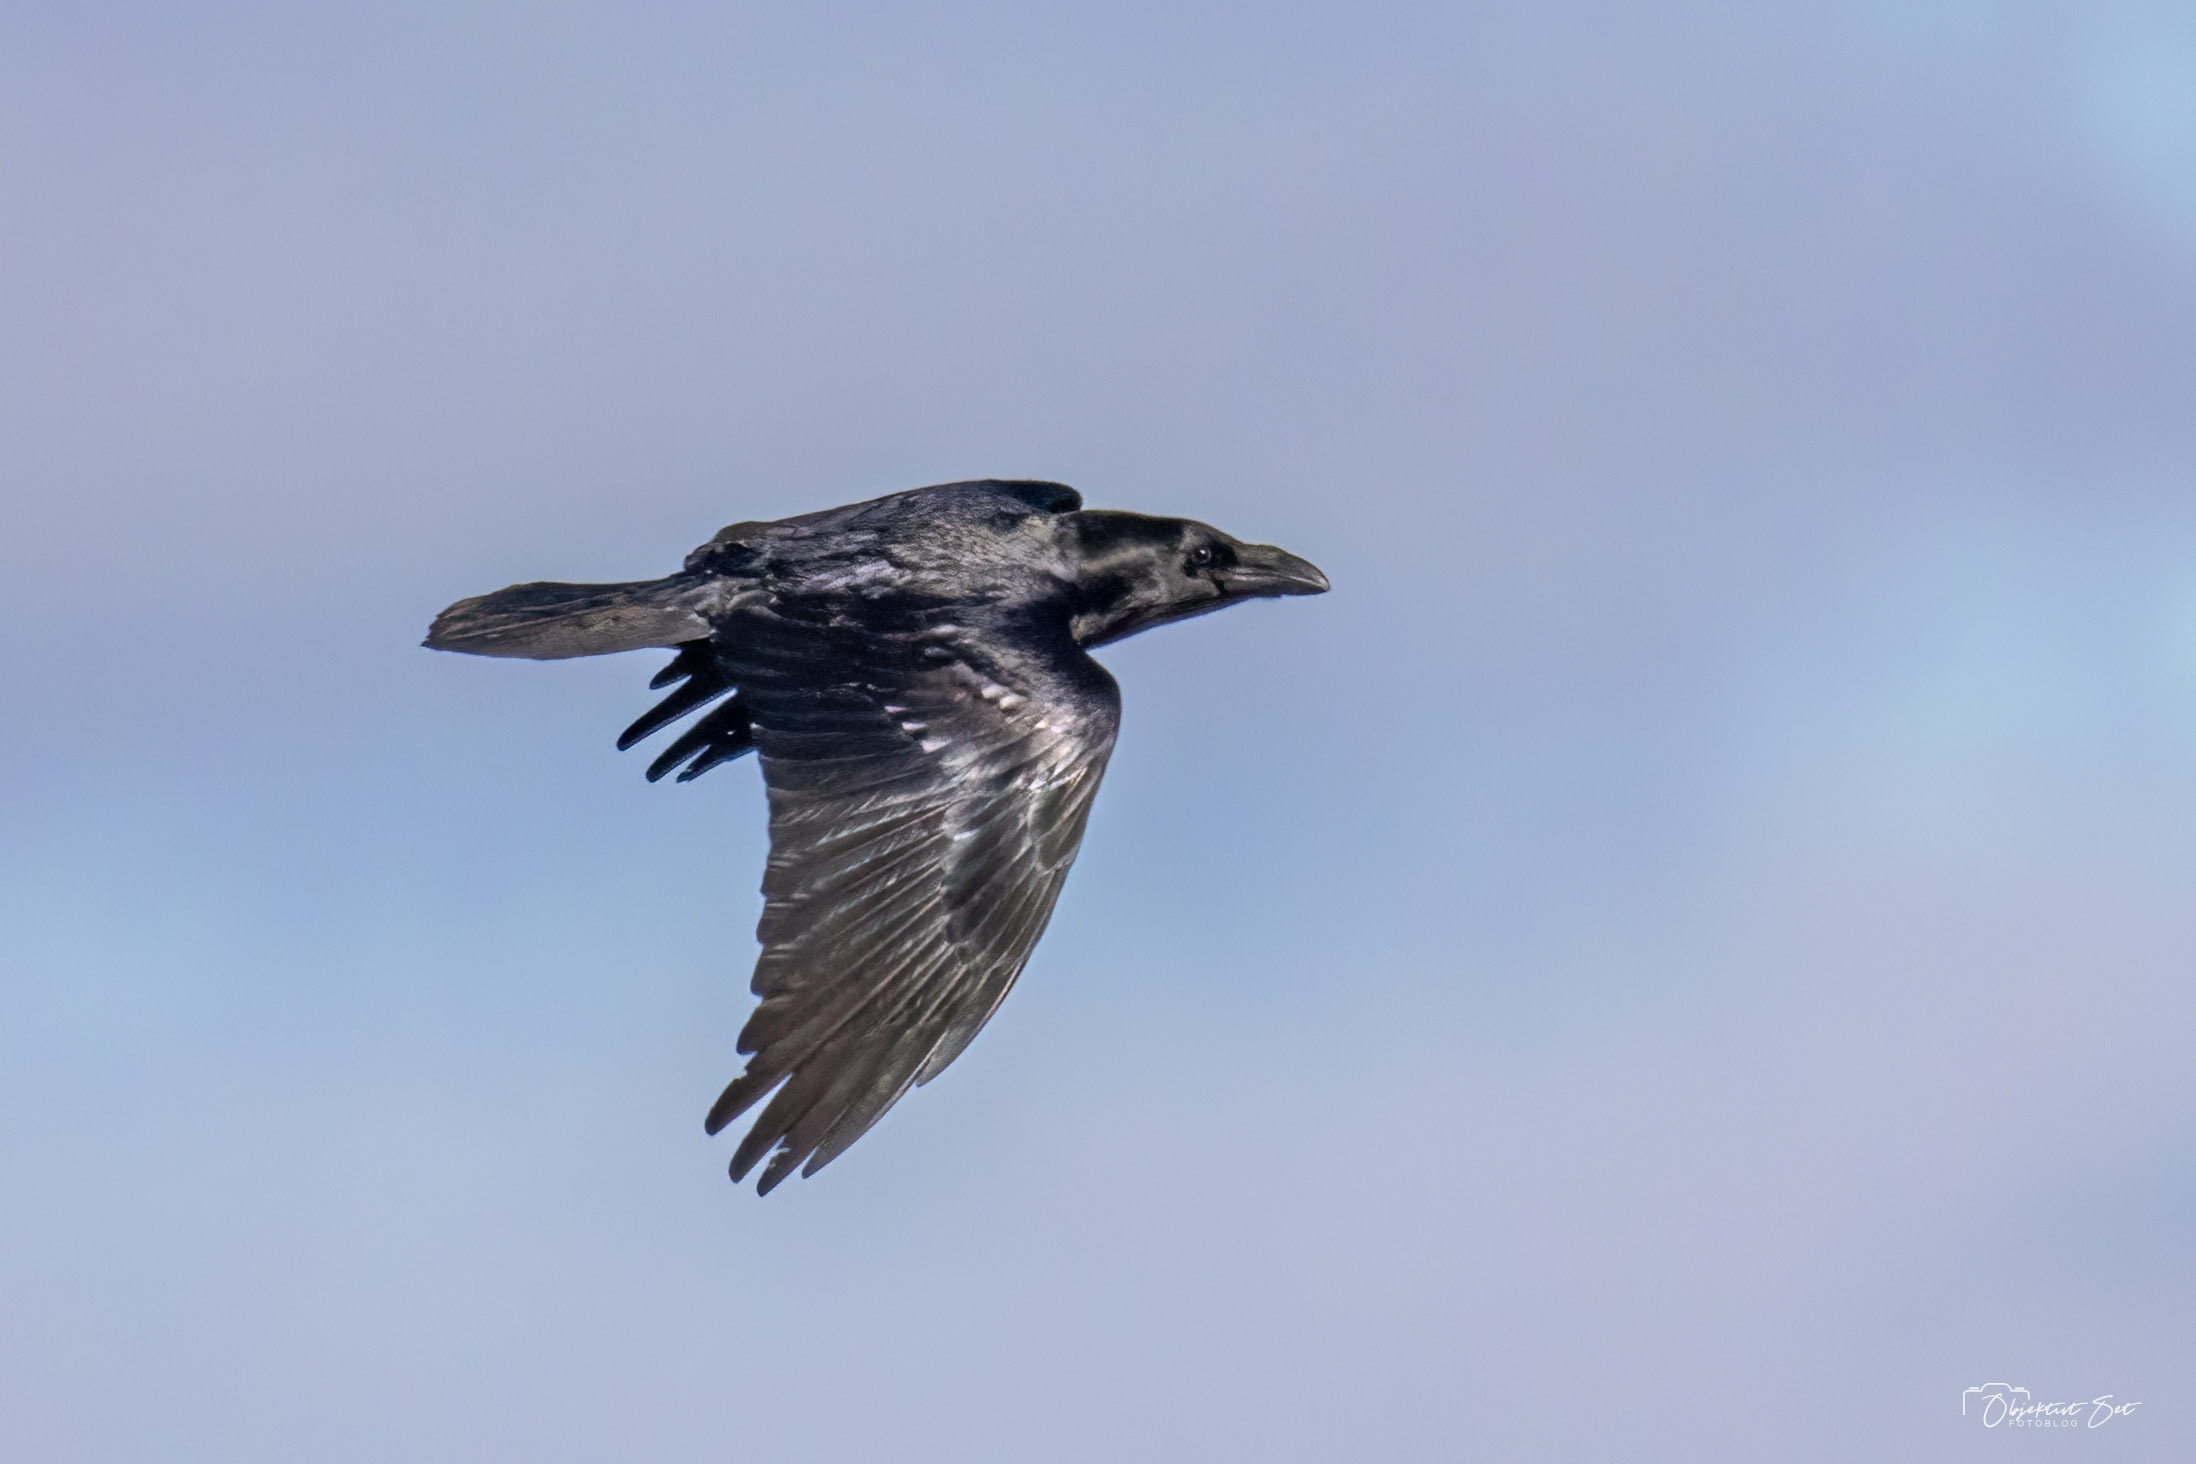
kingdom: Animalia
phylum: Chordata
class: Aves
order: Passeriformes
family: Corvidae
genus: Corvus
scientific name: Corvus corax
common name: Ravn
